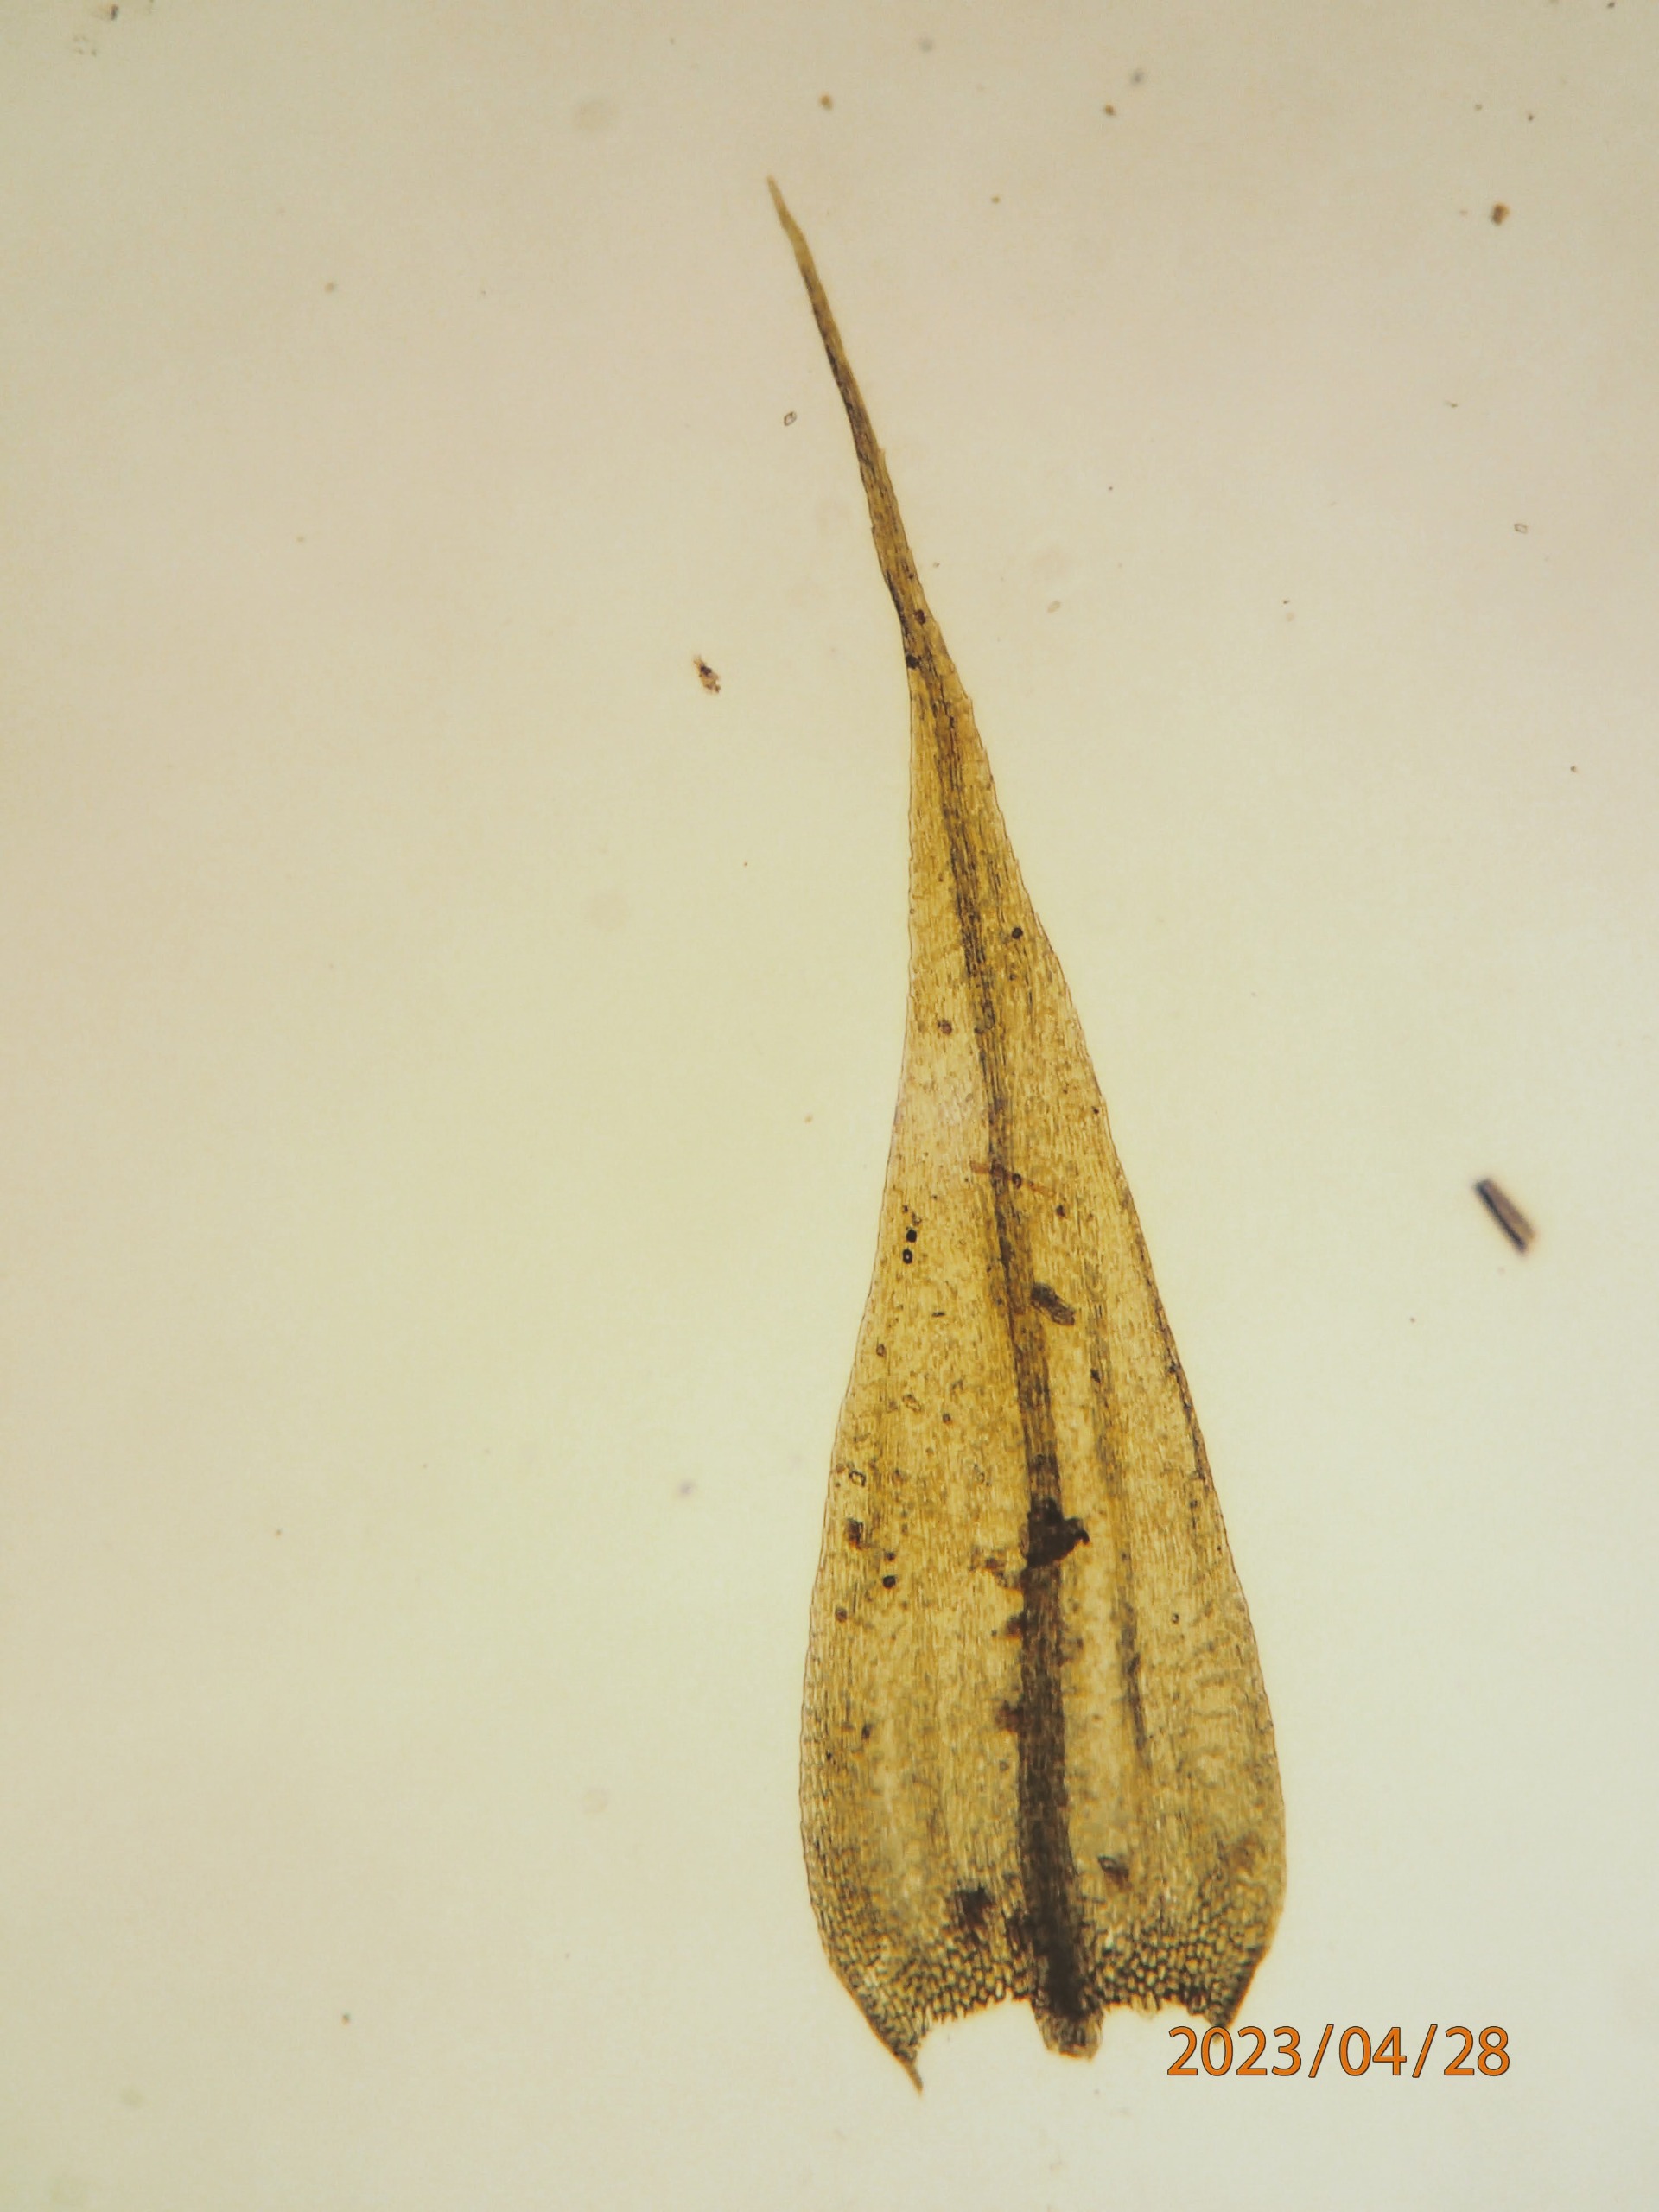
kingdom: Plantae
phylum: Bryophyta
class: Bryopsida
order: Hypnales
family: Brachytheciaceae
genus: Sciuro-hypnum
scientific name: Sciuro-hypnum populeum
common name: Park-kortkapsel
